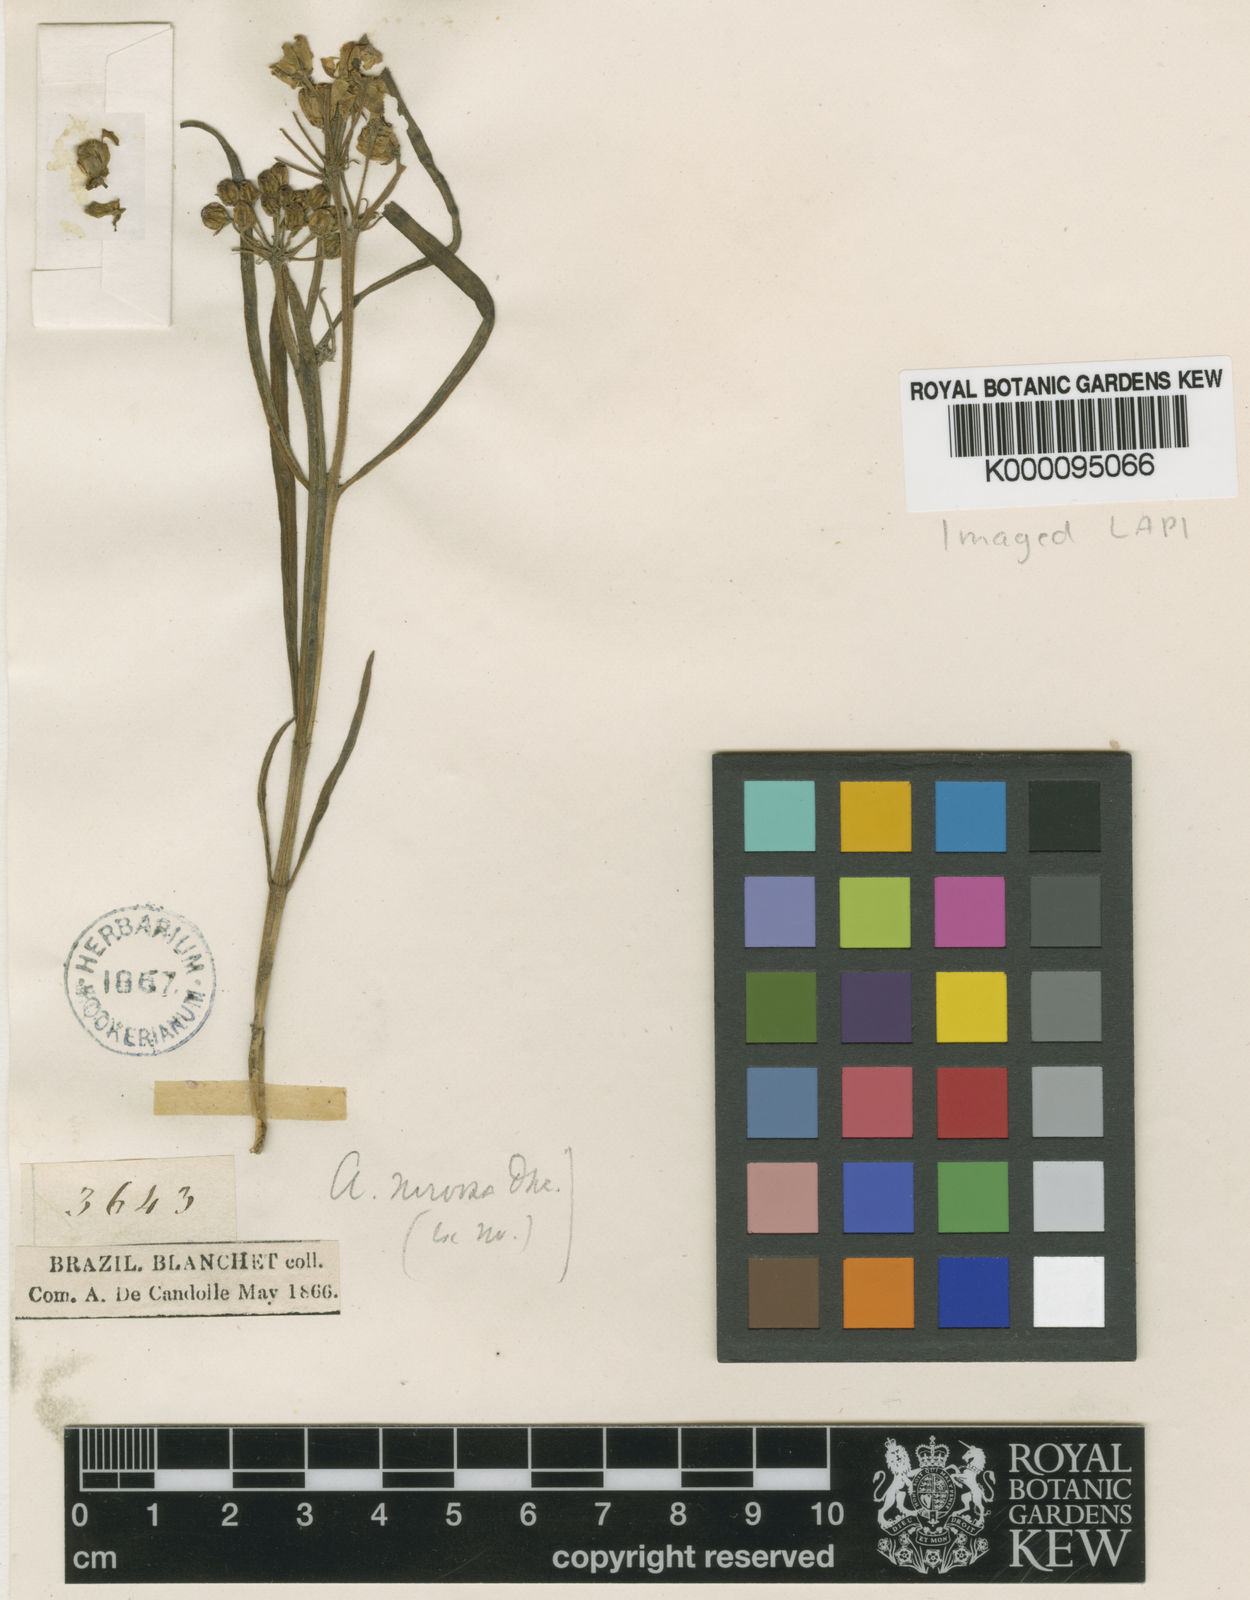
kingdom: Plantae
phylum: Tracheophyta
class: Magnoliopsida
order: Gentianales
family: Apocynaceae
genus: Asclepias
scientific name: Asclepias mellodora
